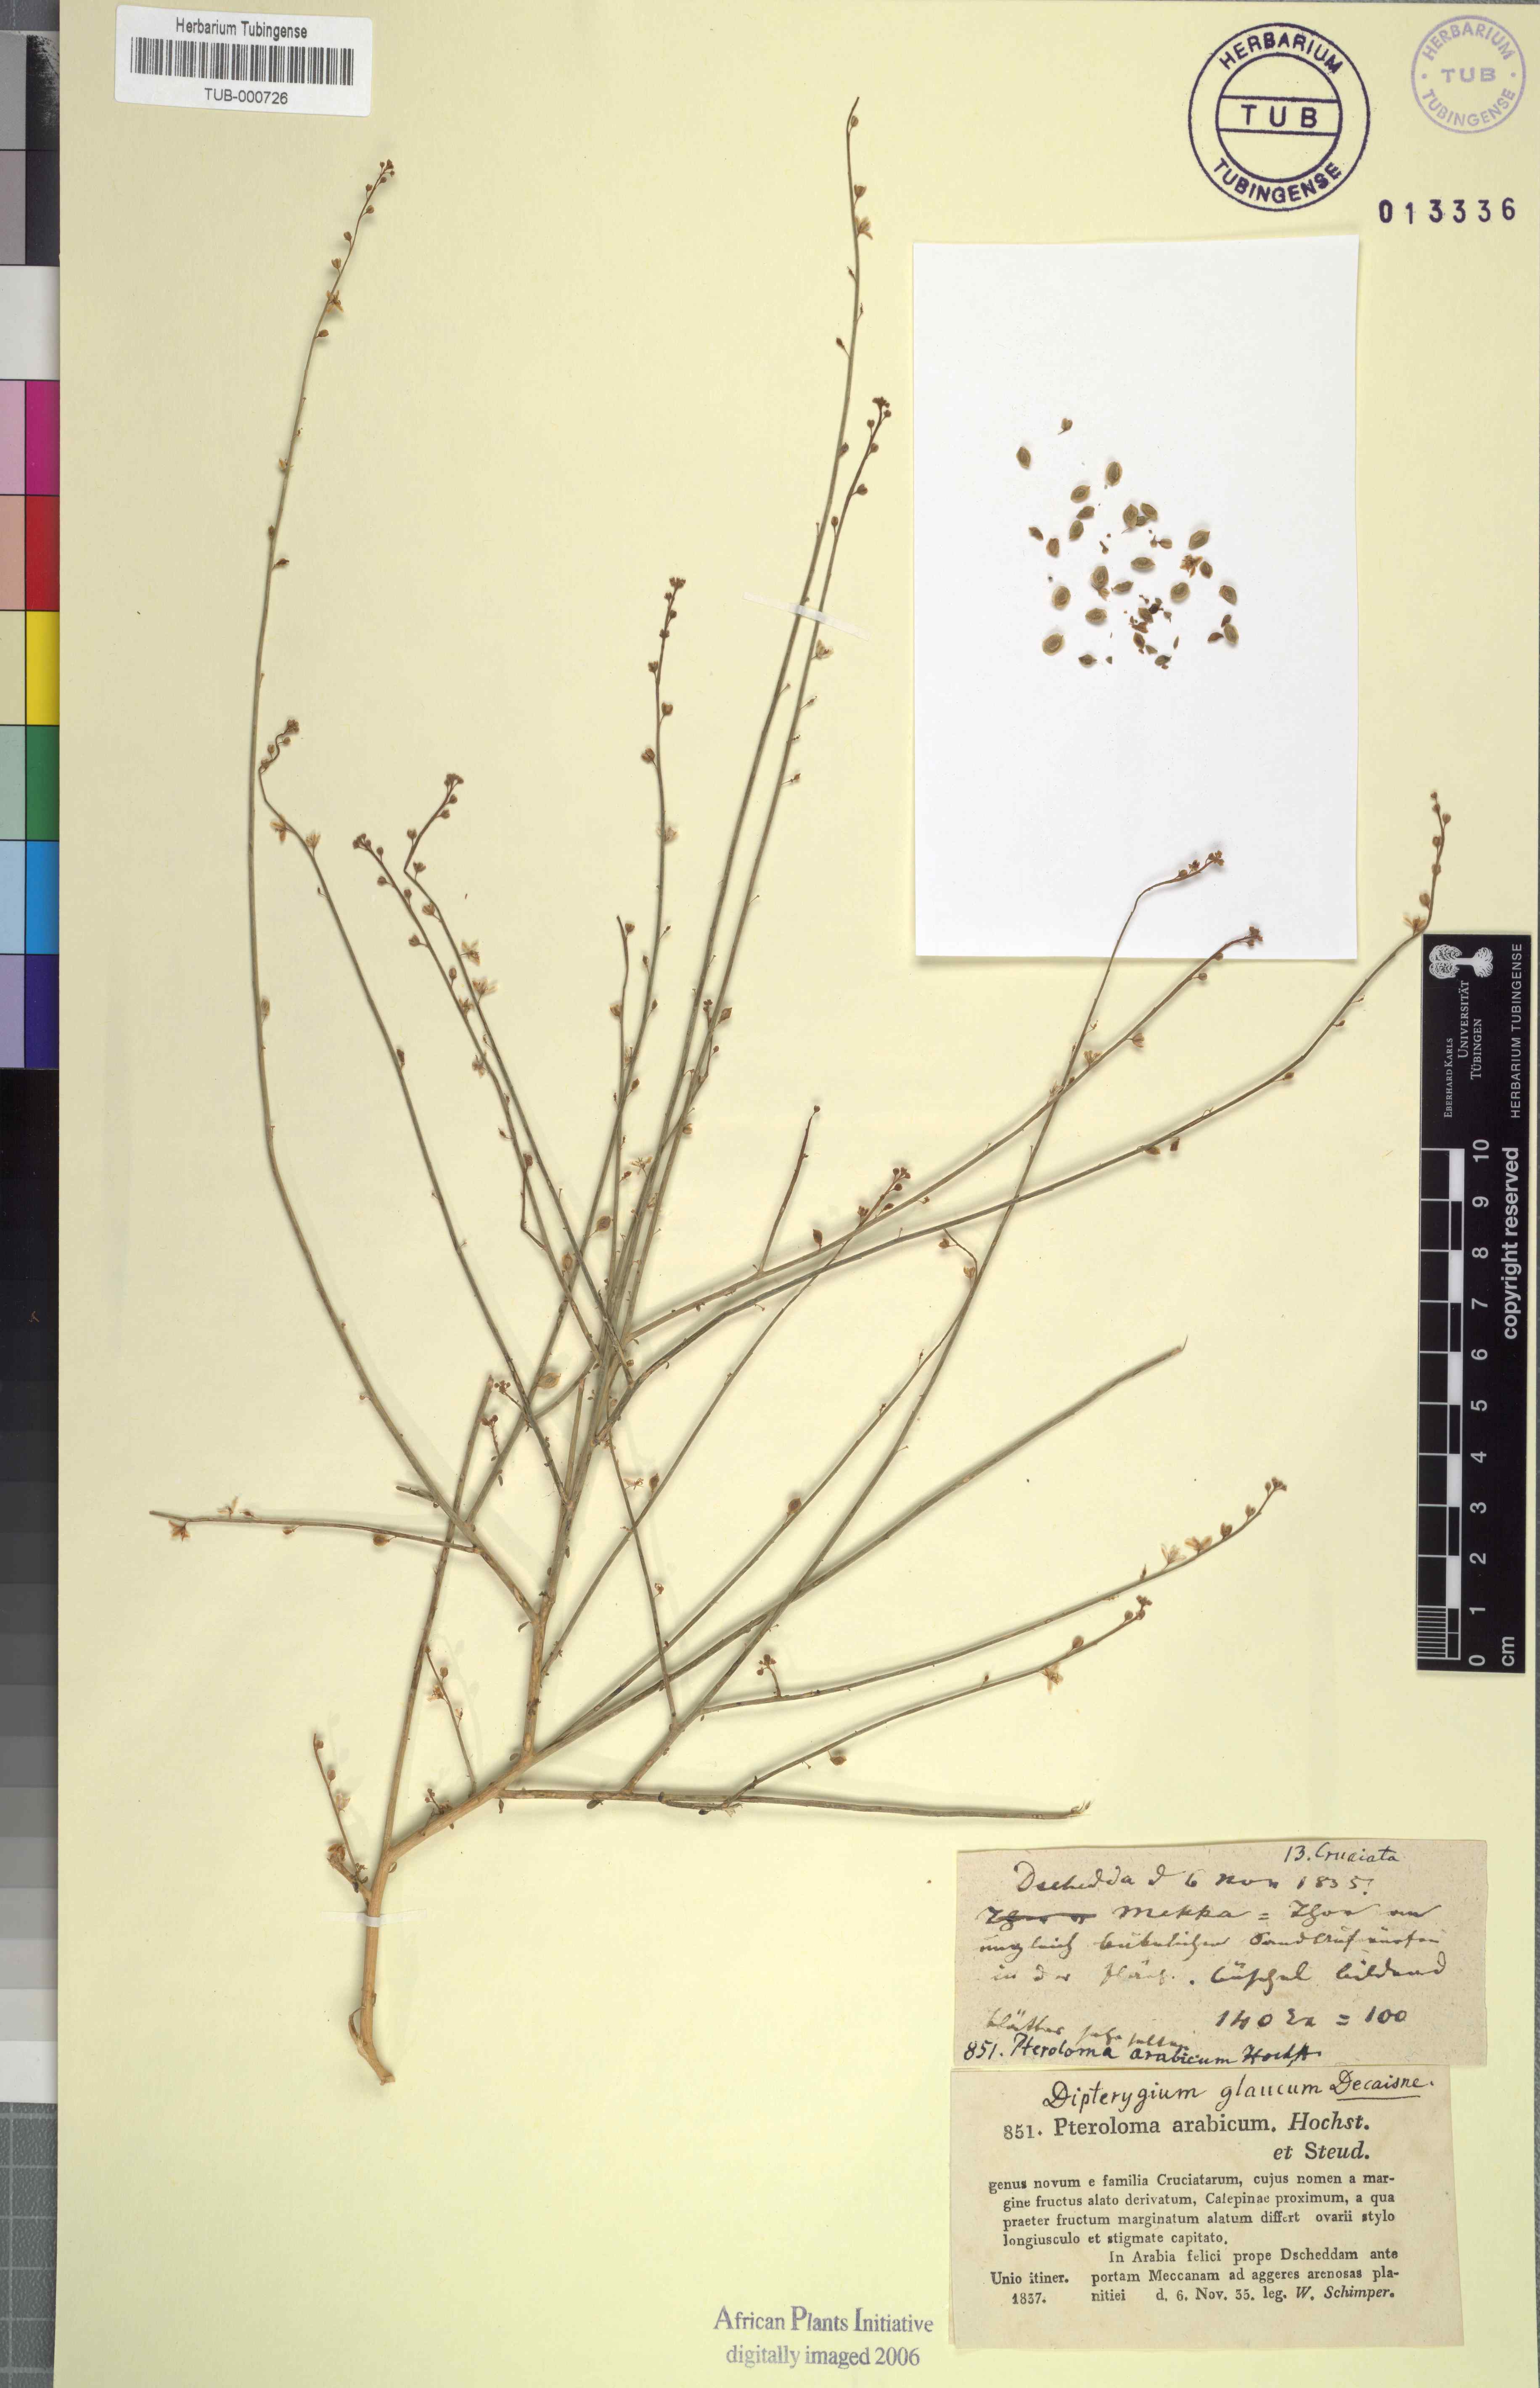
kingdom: Plantae
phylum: Tracheophyta
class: Magnoliopsida
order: Brassicales
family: Cleomaceae
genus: Dipterygium
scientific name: Dipterygium glaucum
